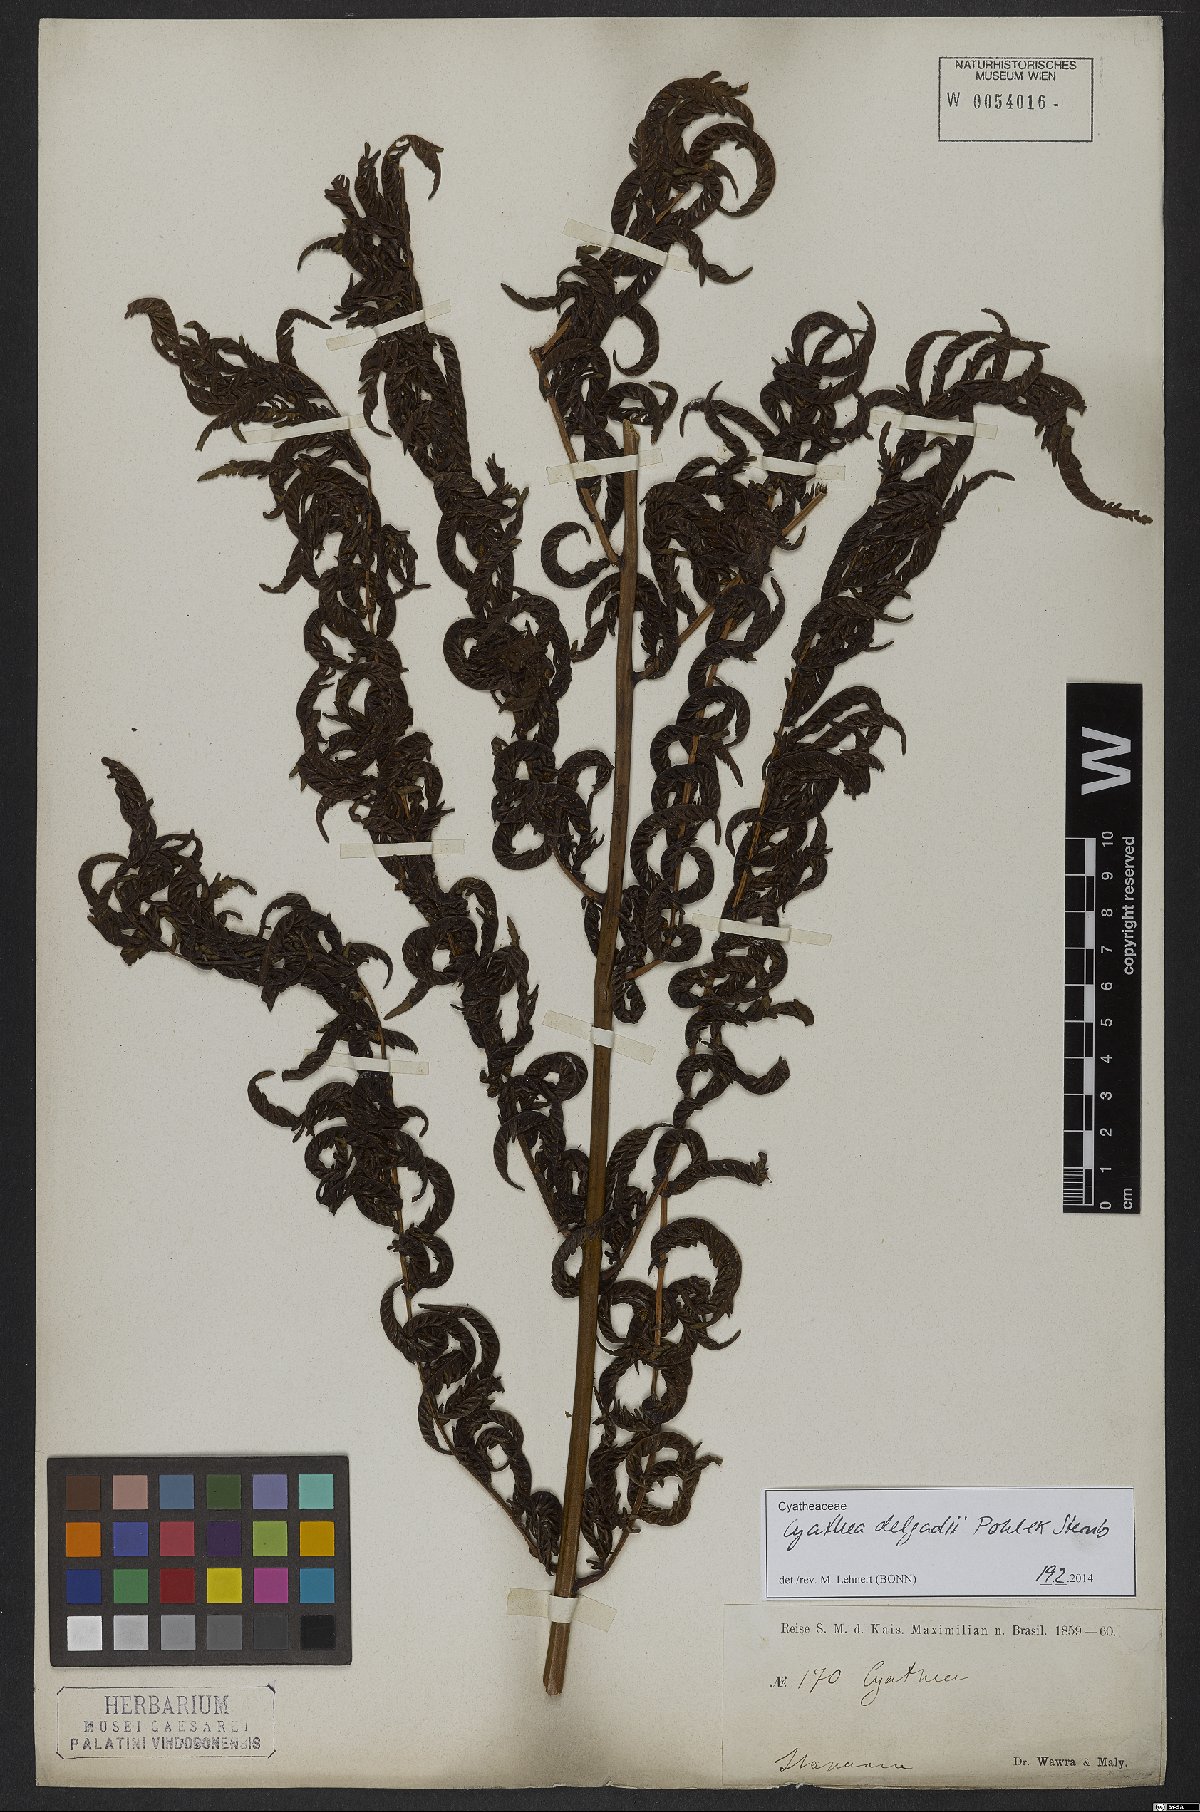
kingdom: Plantae
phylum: Tracheophyta
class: Polypodiopsida
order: Cyatheales
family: Cyatheaceae
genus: Cyathea
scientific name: Cyathea delgadii
